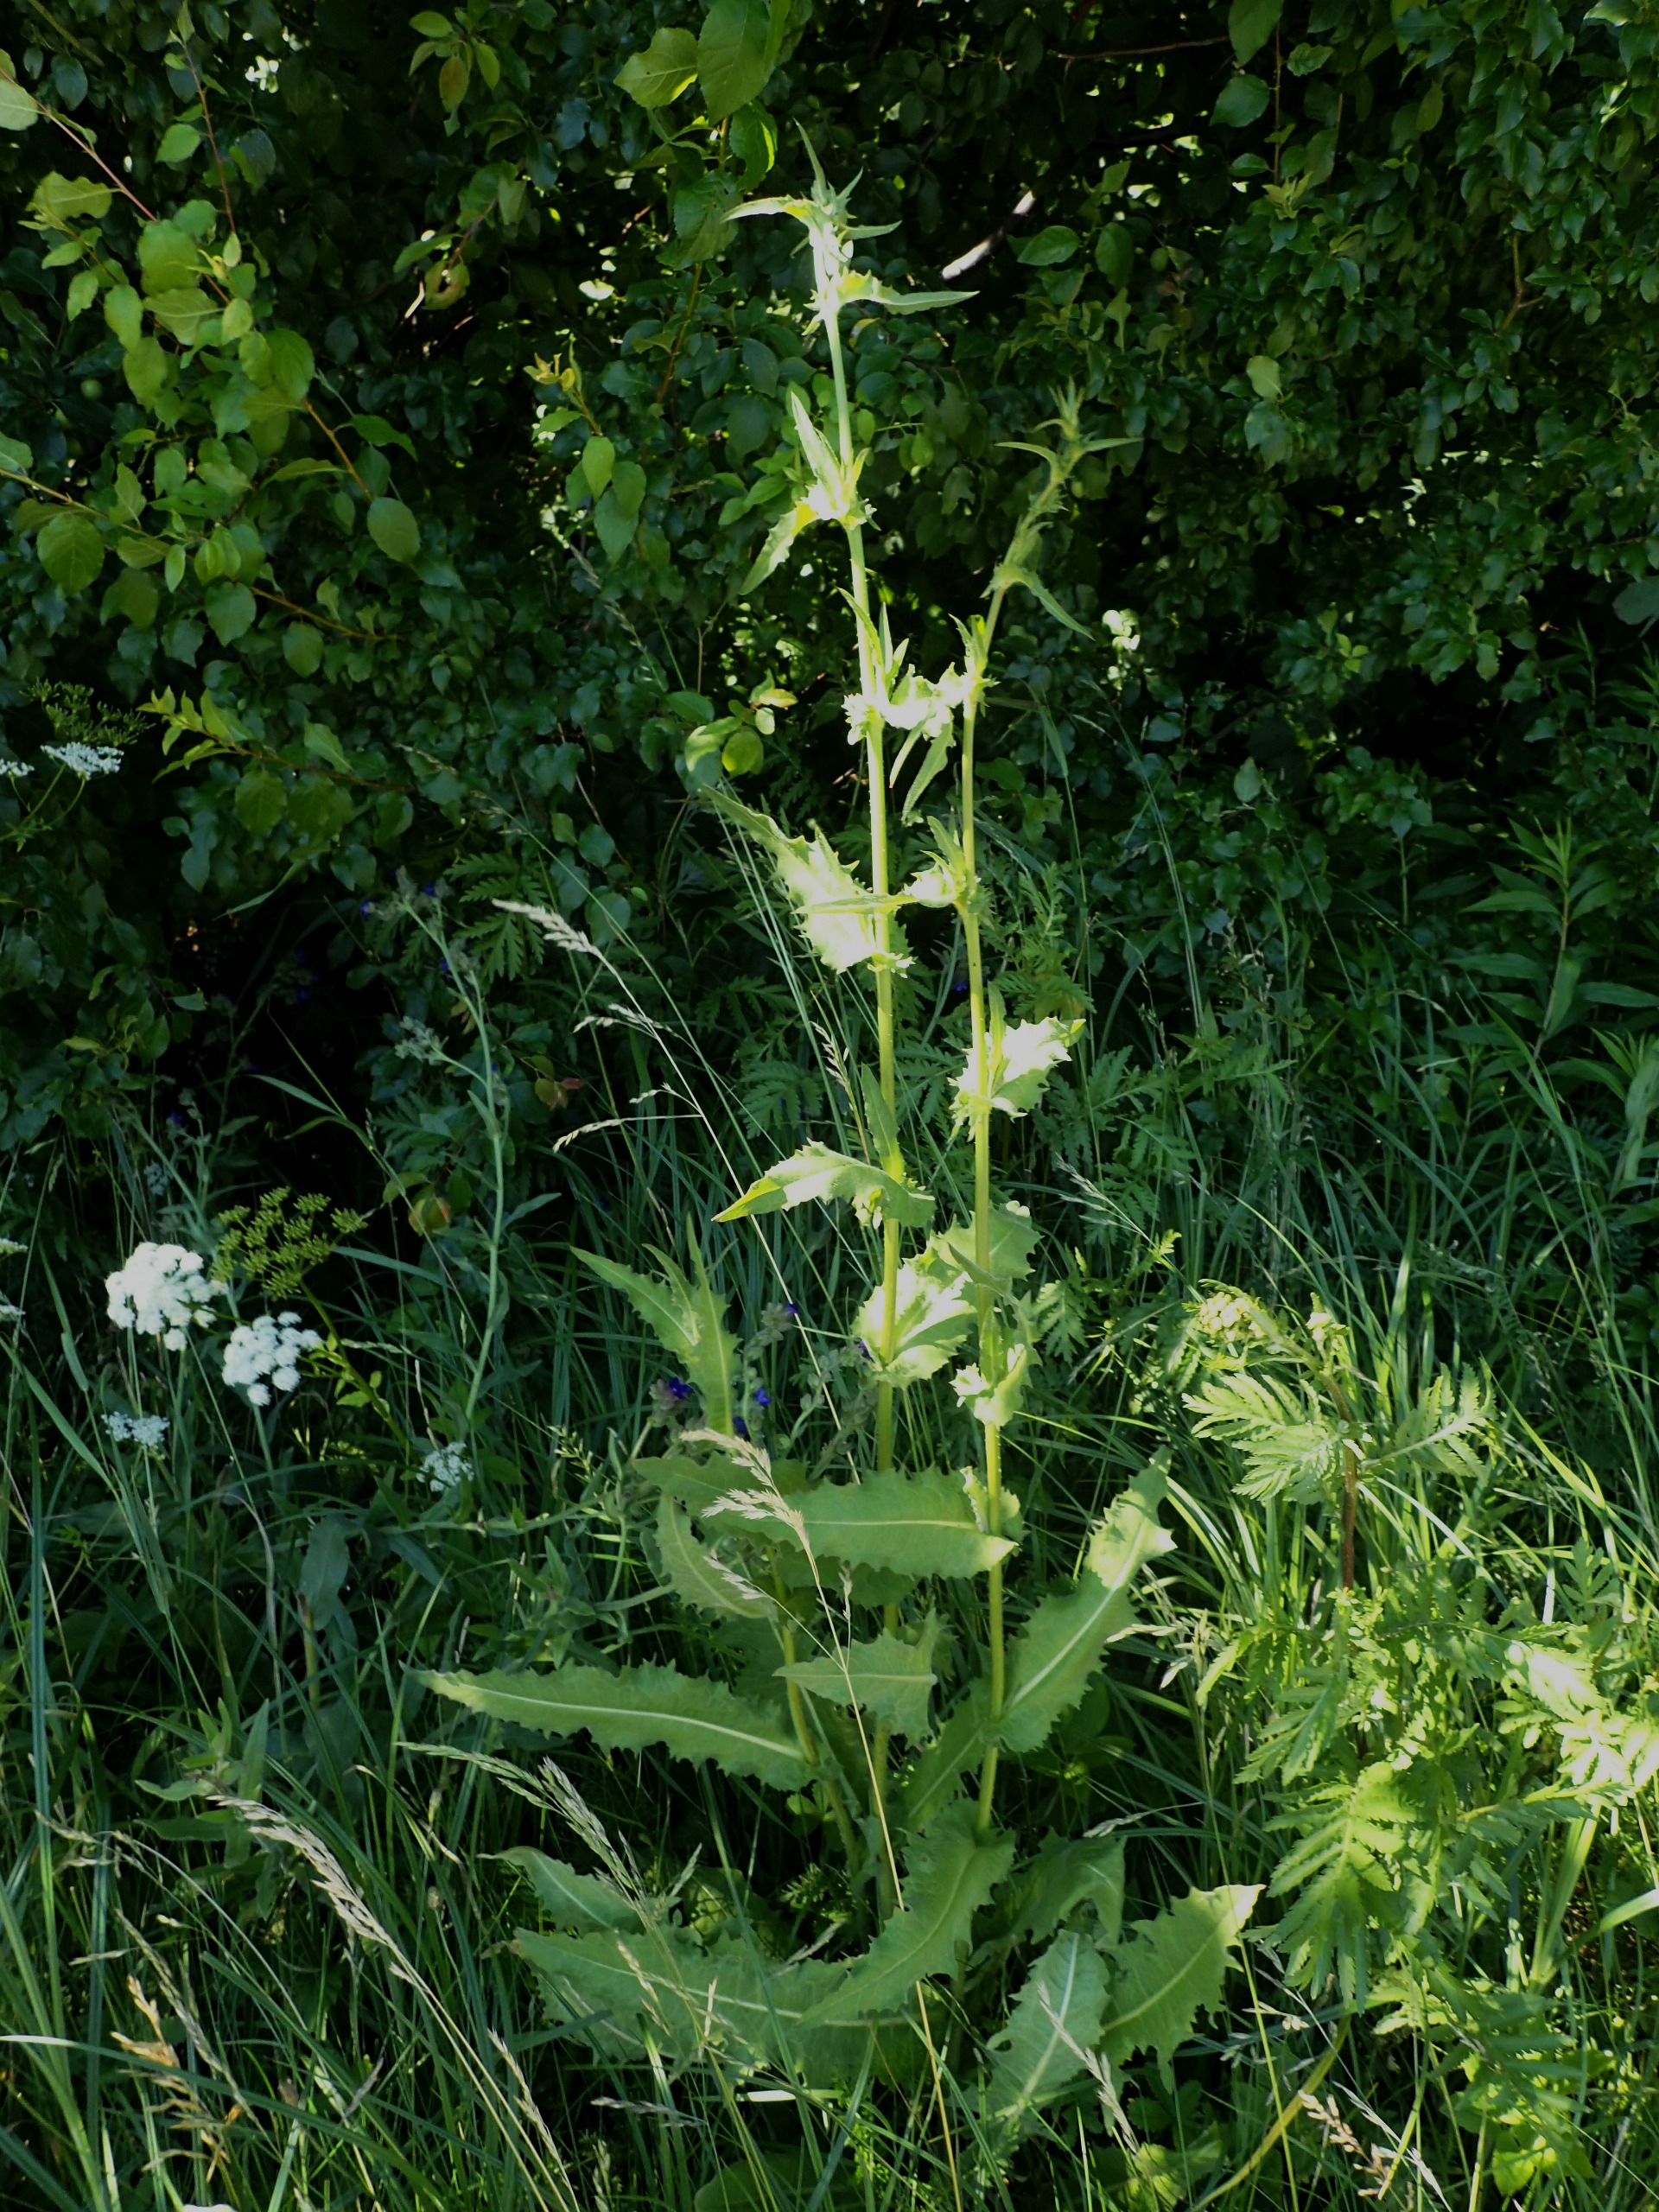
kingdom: Plantae
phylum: Tracheophyta
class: Magnoliopsida
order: Asterales
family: Asteraceae
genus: Cichorium
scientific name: Cichorium intybus
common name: Cikorie
